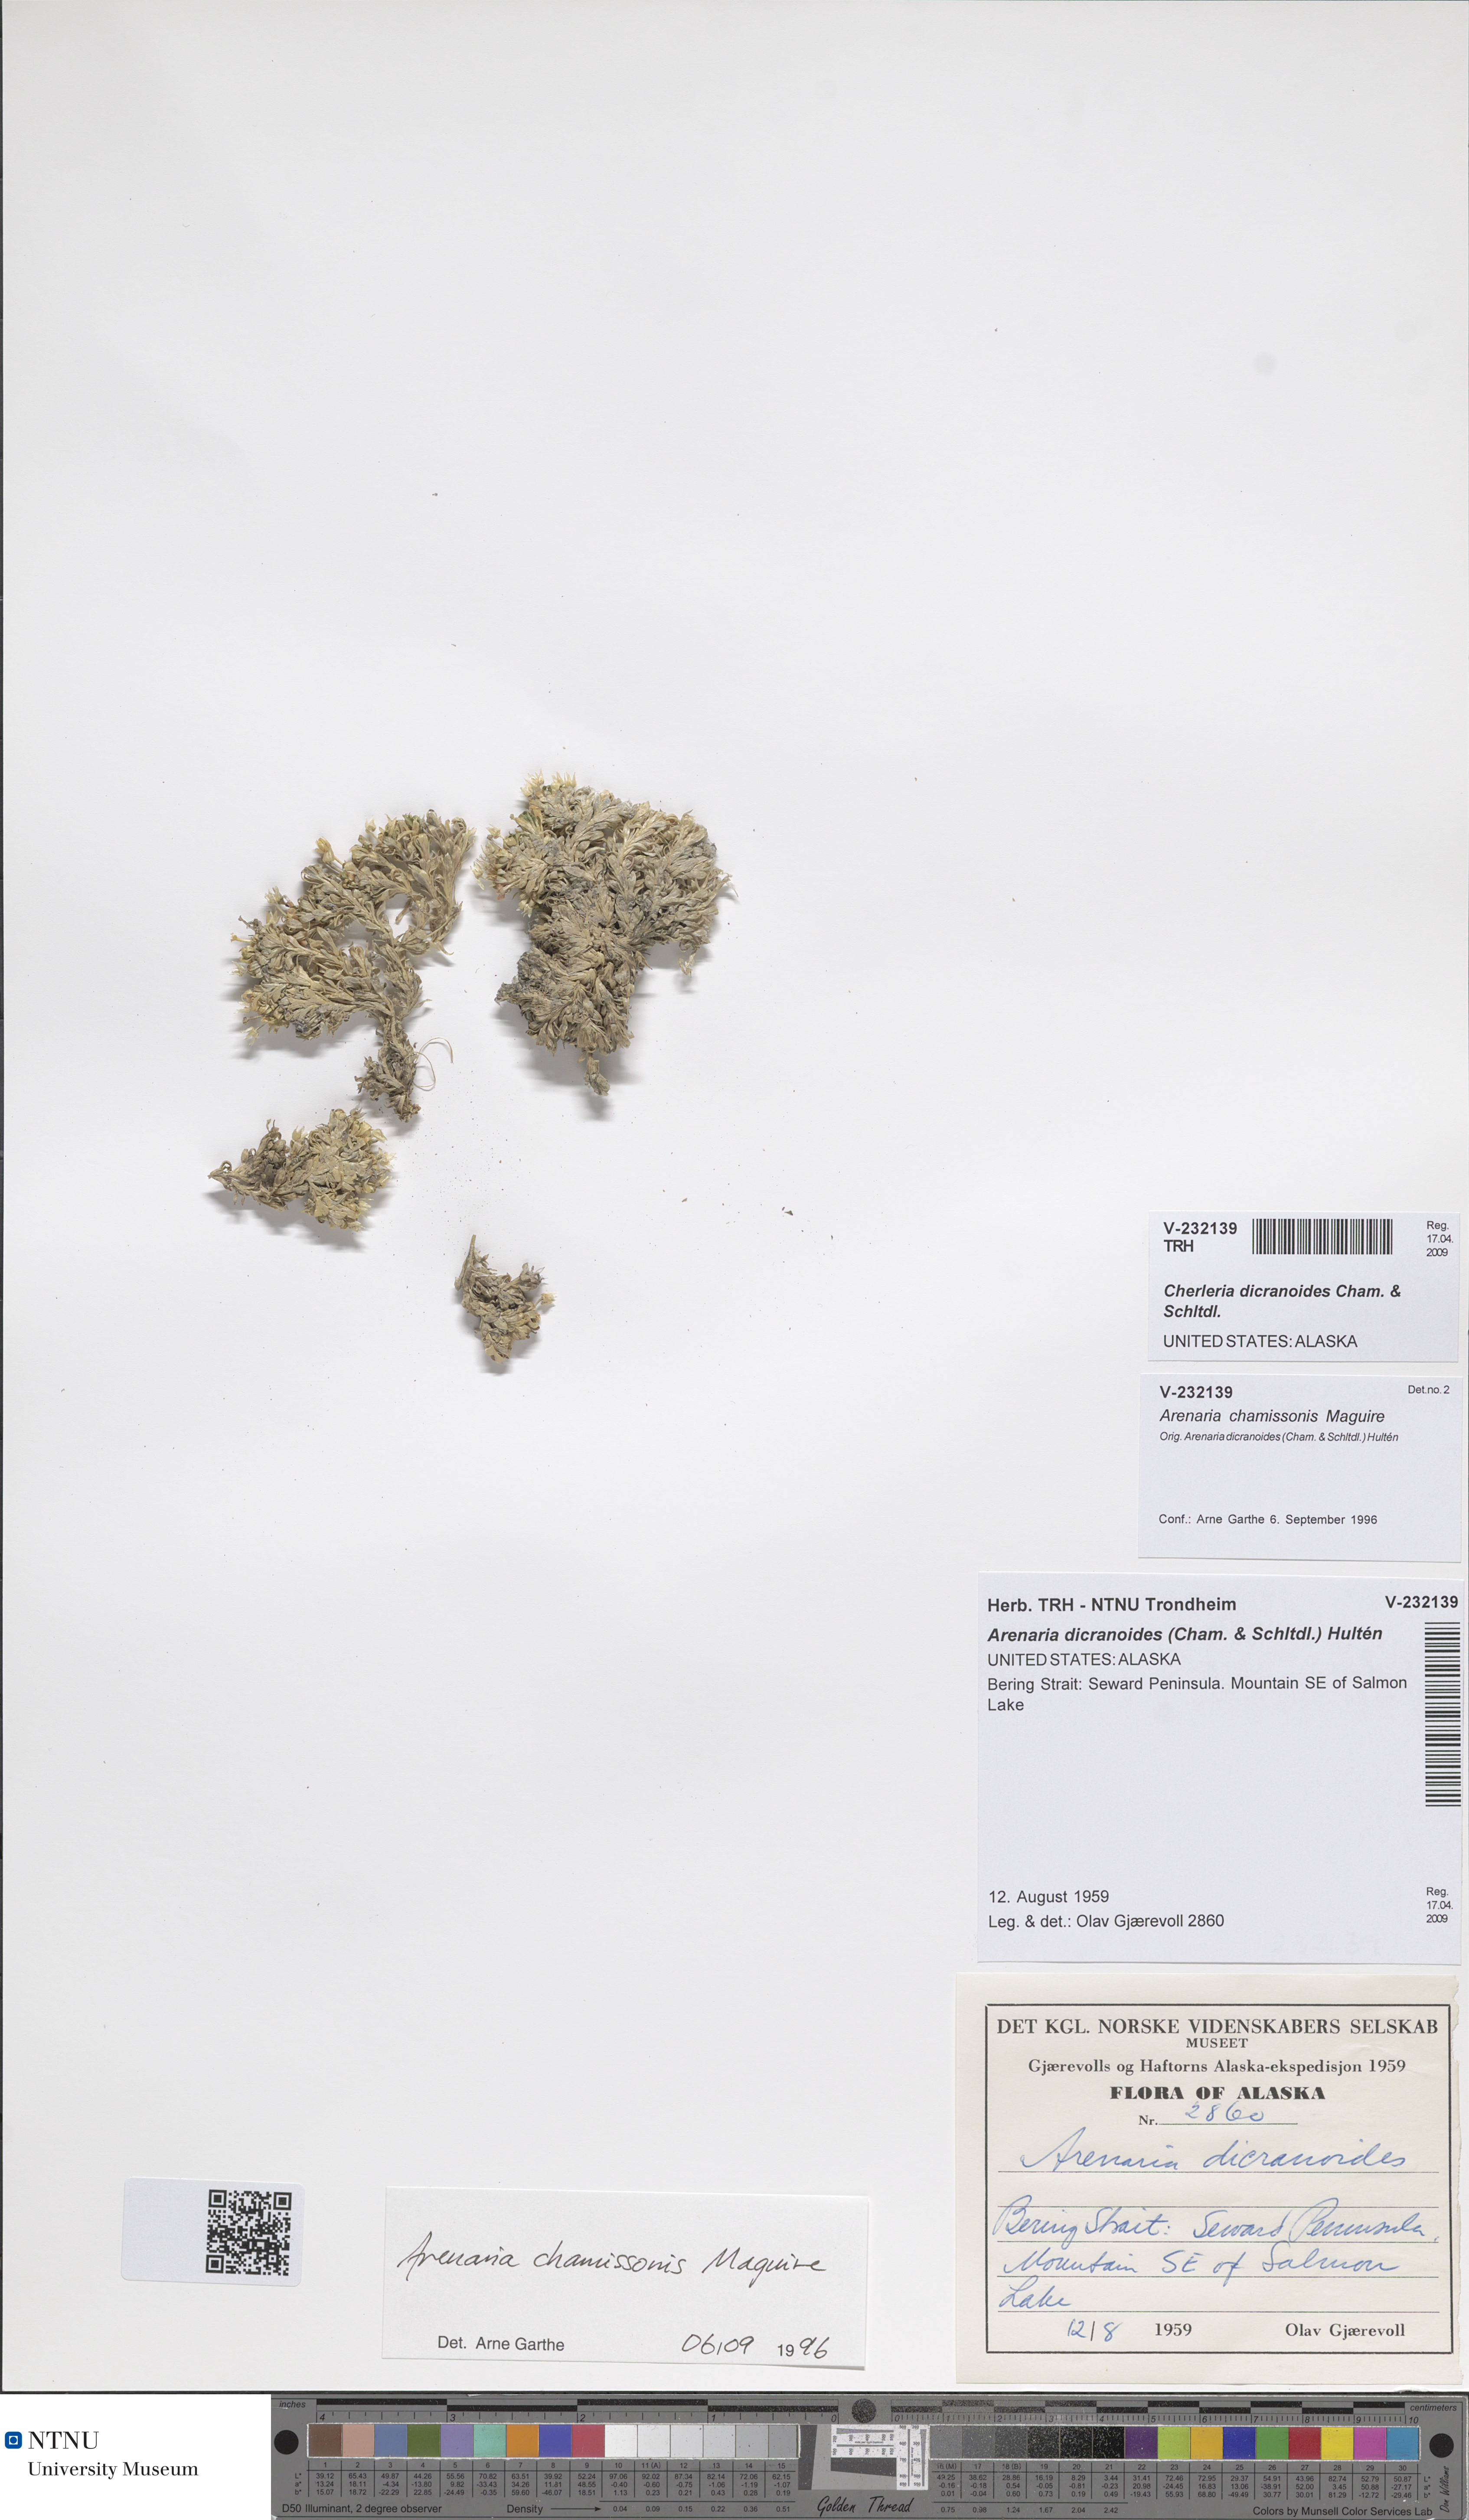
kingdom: Plantae
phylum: Tracheophyta
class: Magnoliopsida
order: Caryophyllales
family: Caryophyllaceae
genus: Stellaria
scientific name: Stellaria dicranoides
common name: Chamisso's starwort
